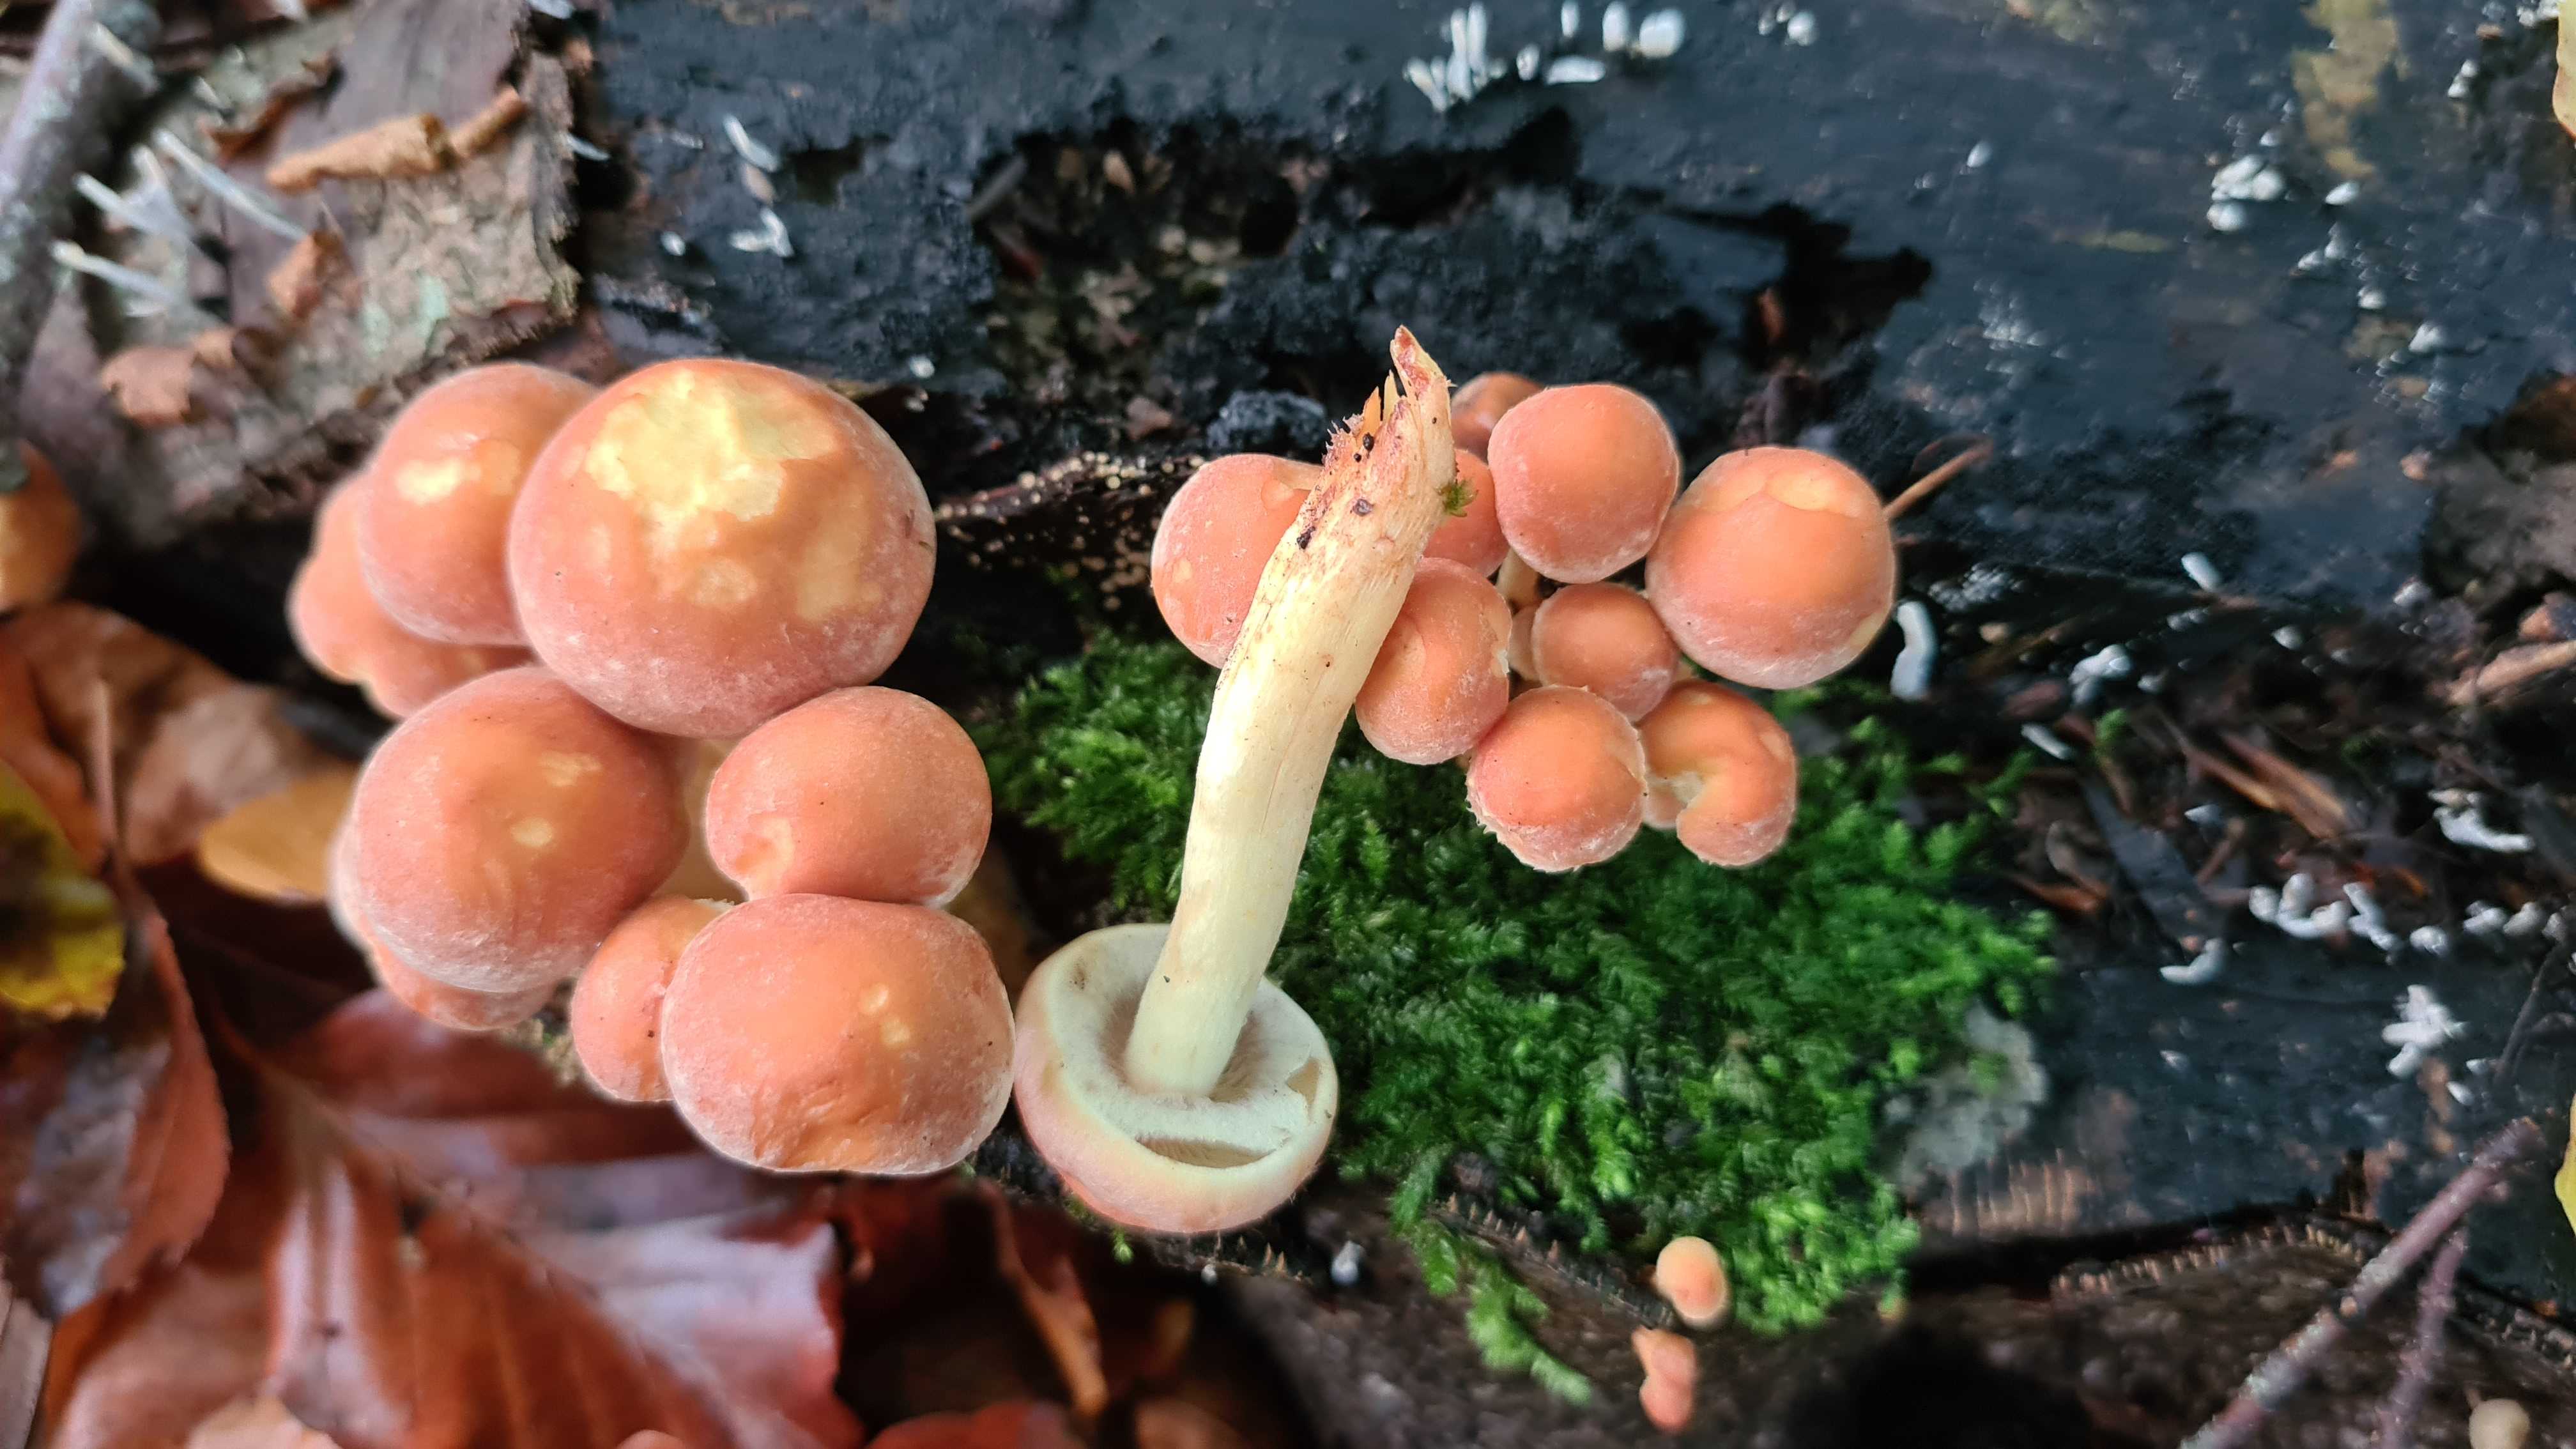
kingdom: Fungi
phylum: Basidiomycota
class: Agaricomycetes
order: Agaricales
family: Strophariaceae
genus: Hypholoma
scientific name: Hypholoma lateritium
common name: teglrød svovlhat
